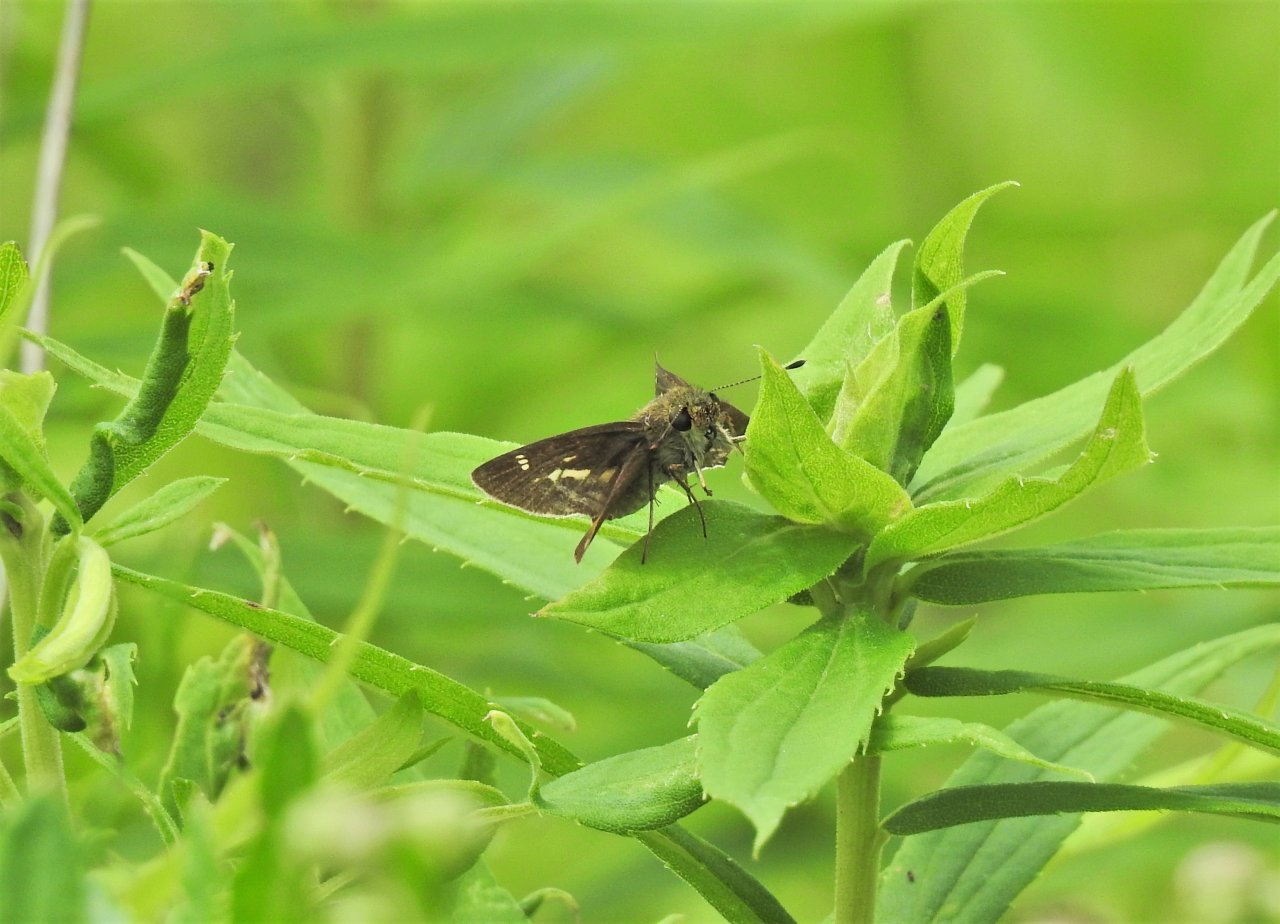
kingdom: Animalia
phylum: Arthropoda
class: Insecta
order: Lepidoptera
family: Hesperiidae
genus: Vernia
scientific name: Vernia verna
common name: Little Glassywing
